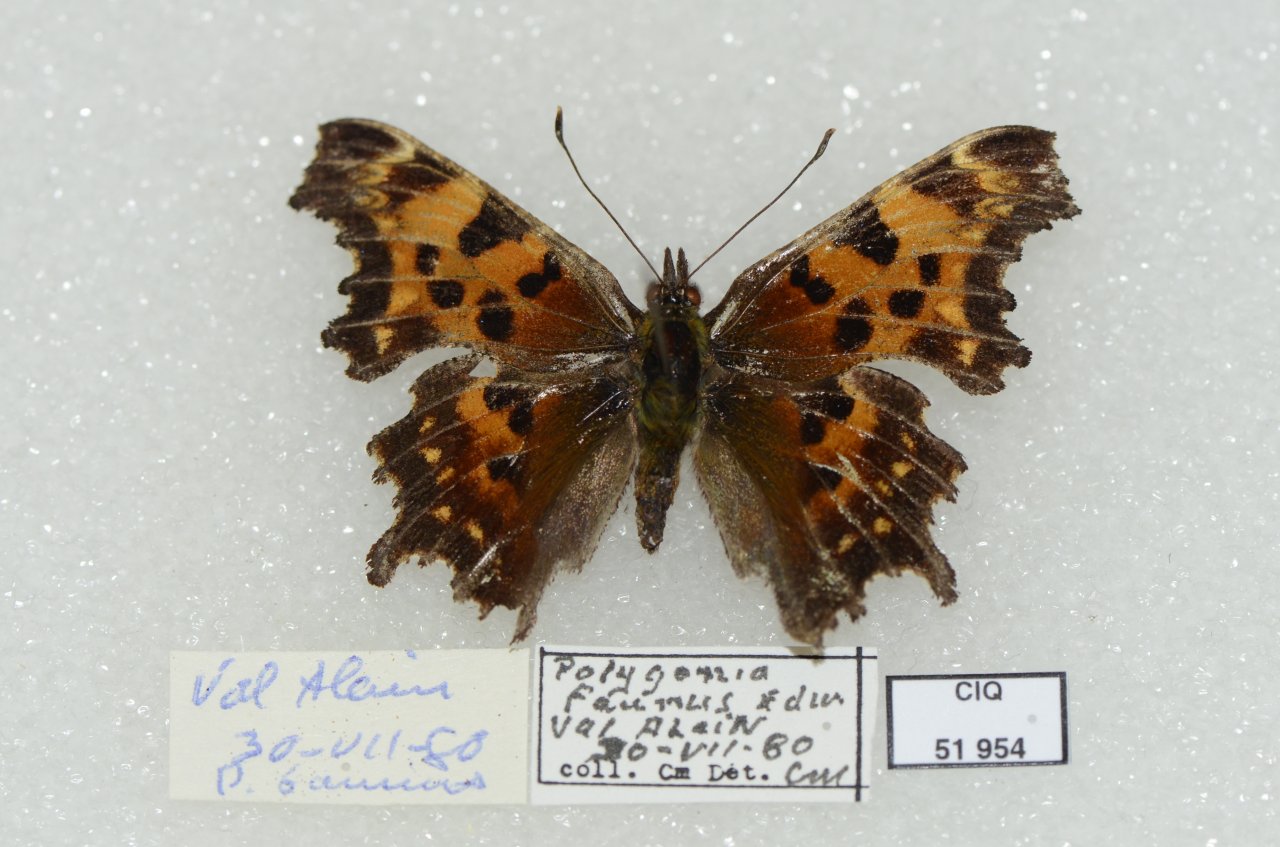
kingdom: Animalia
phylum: Arthropoda
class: Insecta
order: Lepidoptera
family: Nymphalidae
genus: Polygonia
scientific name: Polygonia faunus
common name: Green Comma
